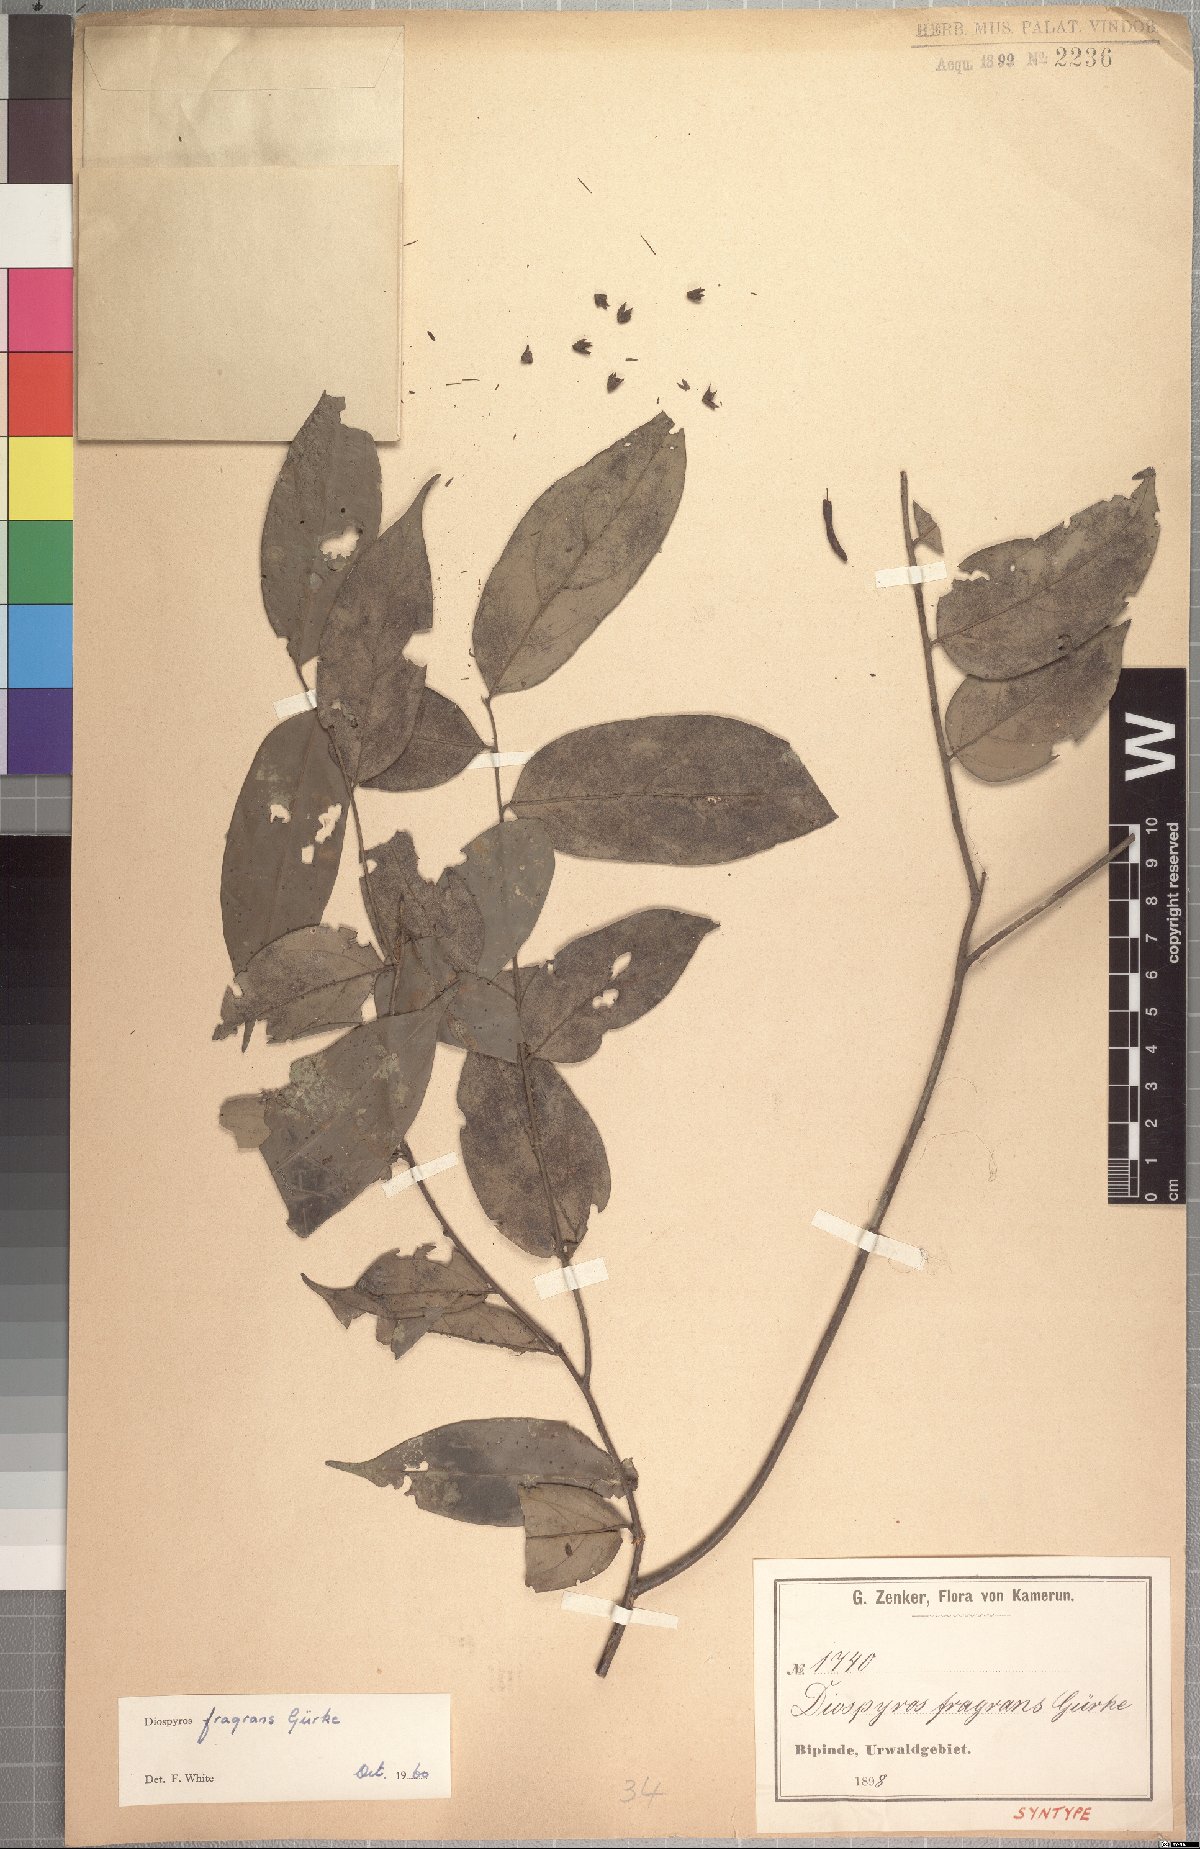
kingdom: Plantae
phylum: Tracheophyta
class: Magnoliopsida
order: Ericales
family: Ebenaceae
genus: Diospyros
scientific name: Diospyros fragrans
